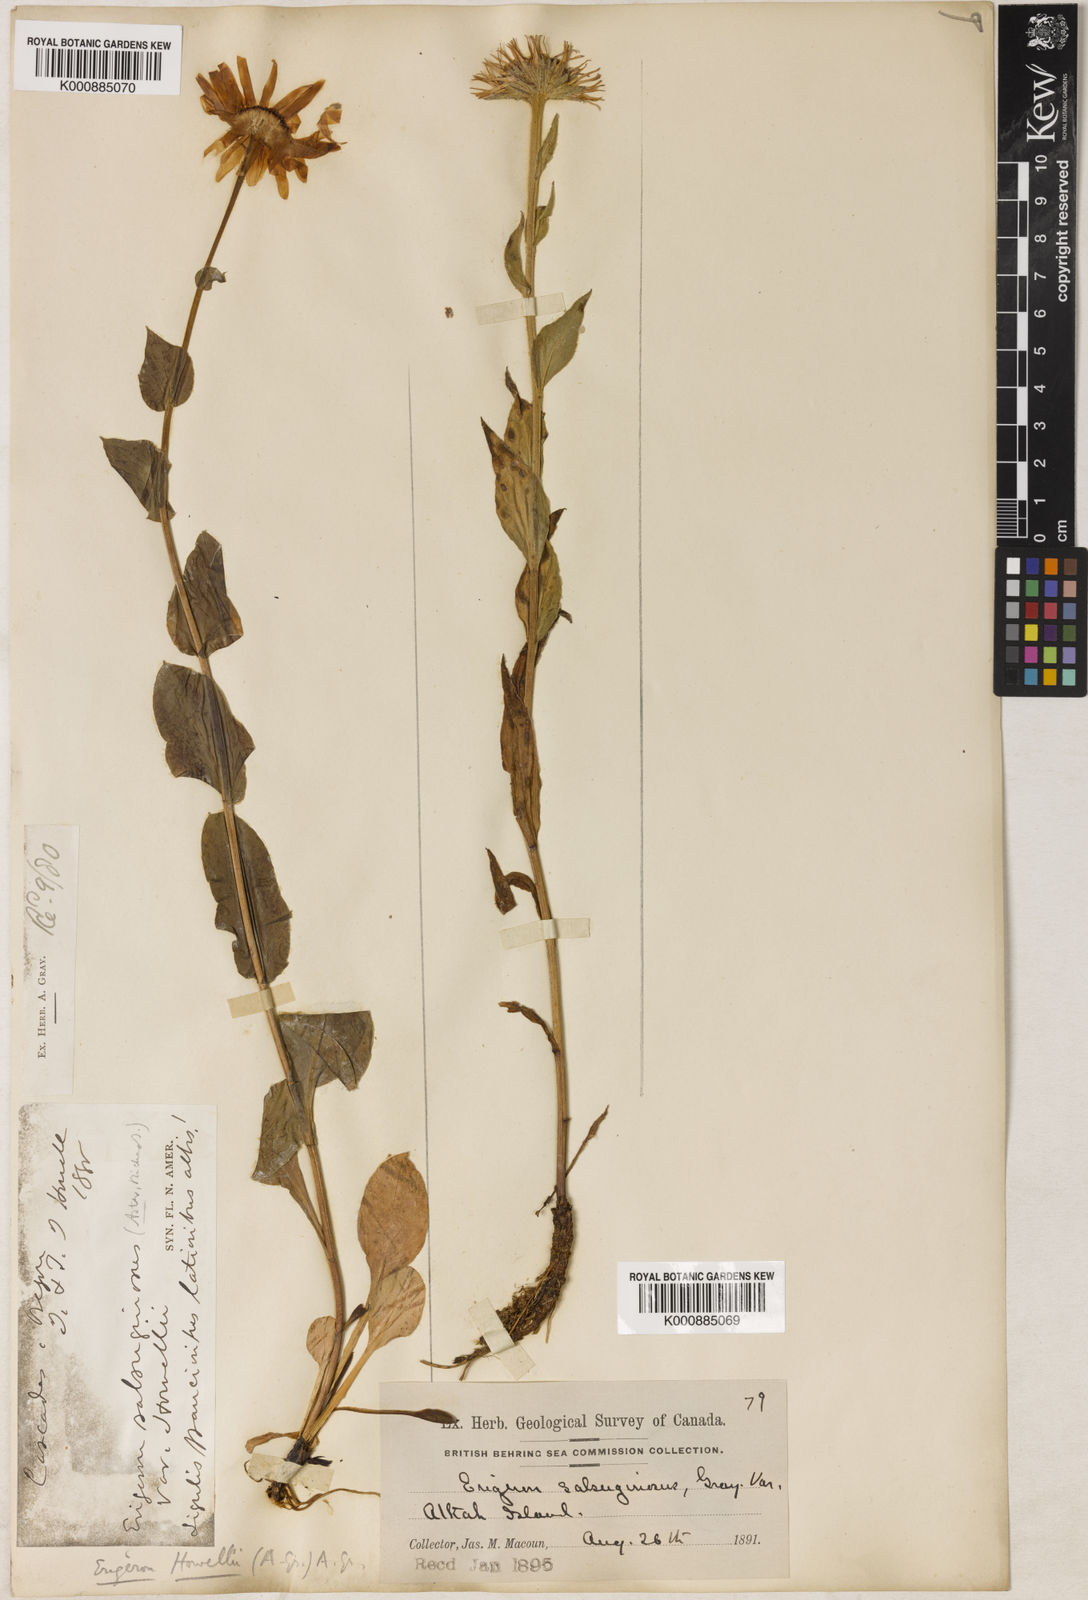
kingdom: Plantae
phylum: Tracheophyta
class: Magnoliopsida
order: Asterales
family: Asteraceae
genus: Aster
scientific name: Aster
